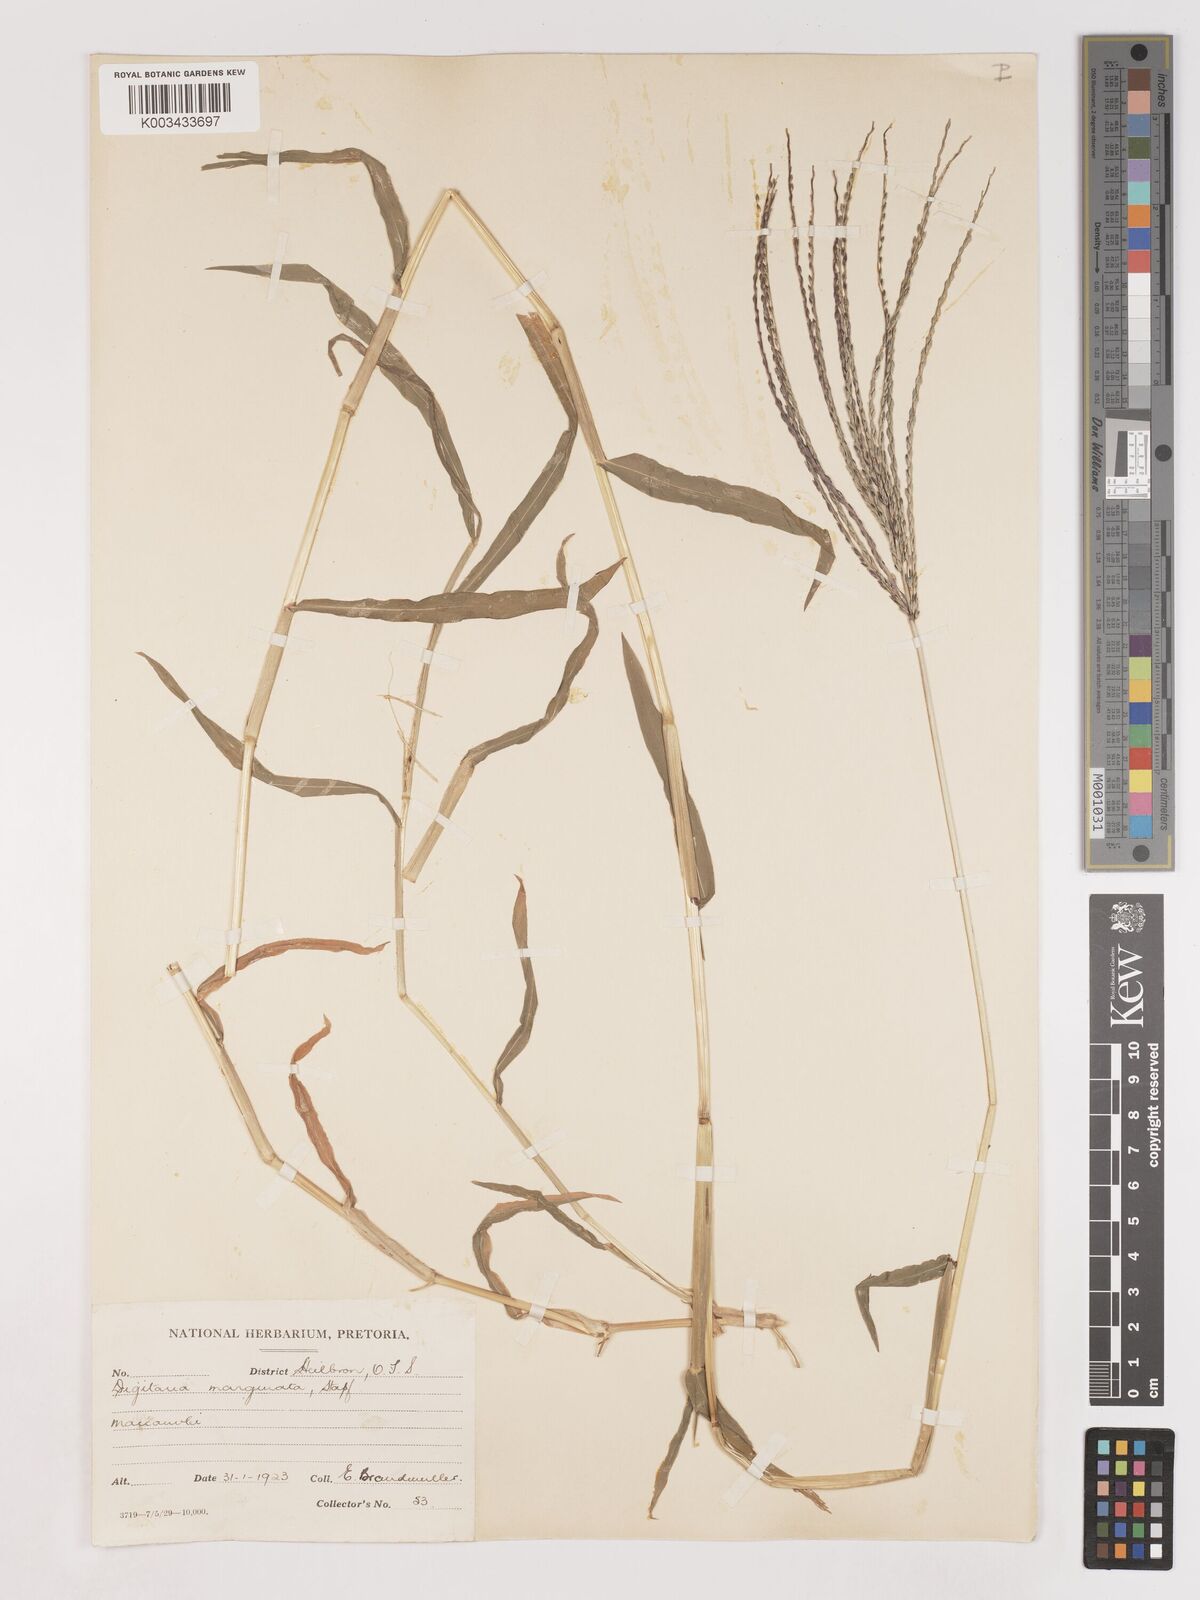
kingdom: Plantae
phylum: Tracheophyta
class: Liliopsida
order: Poales
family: Poaceae
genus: Digitaria
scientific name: Digitaria sanguinalis
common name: Hairy crabgrass
